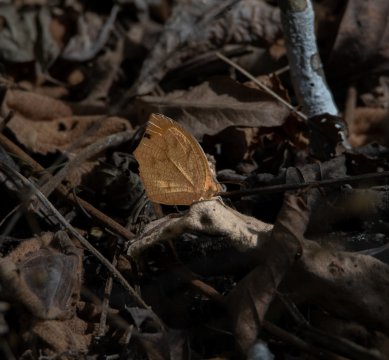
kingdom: Animalia
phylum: Arthropoda
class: Insecta
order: Lepidoptera
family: Pieridae
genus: Pyrisitia
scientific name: Pyrisitia proterpia
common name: Tailed Orange
